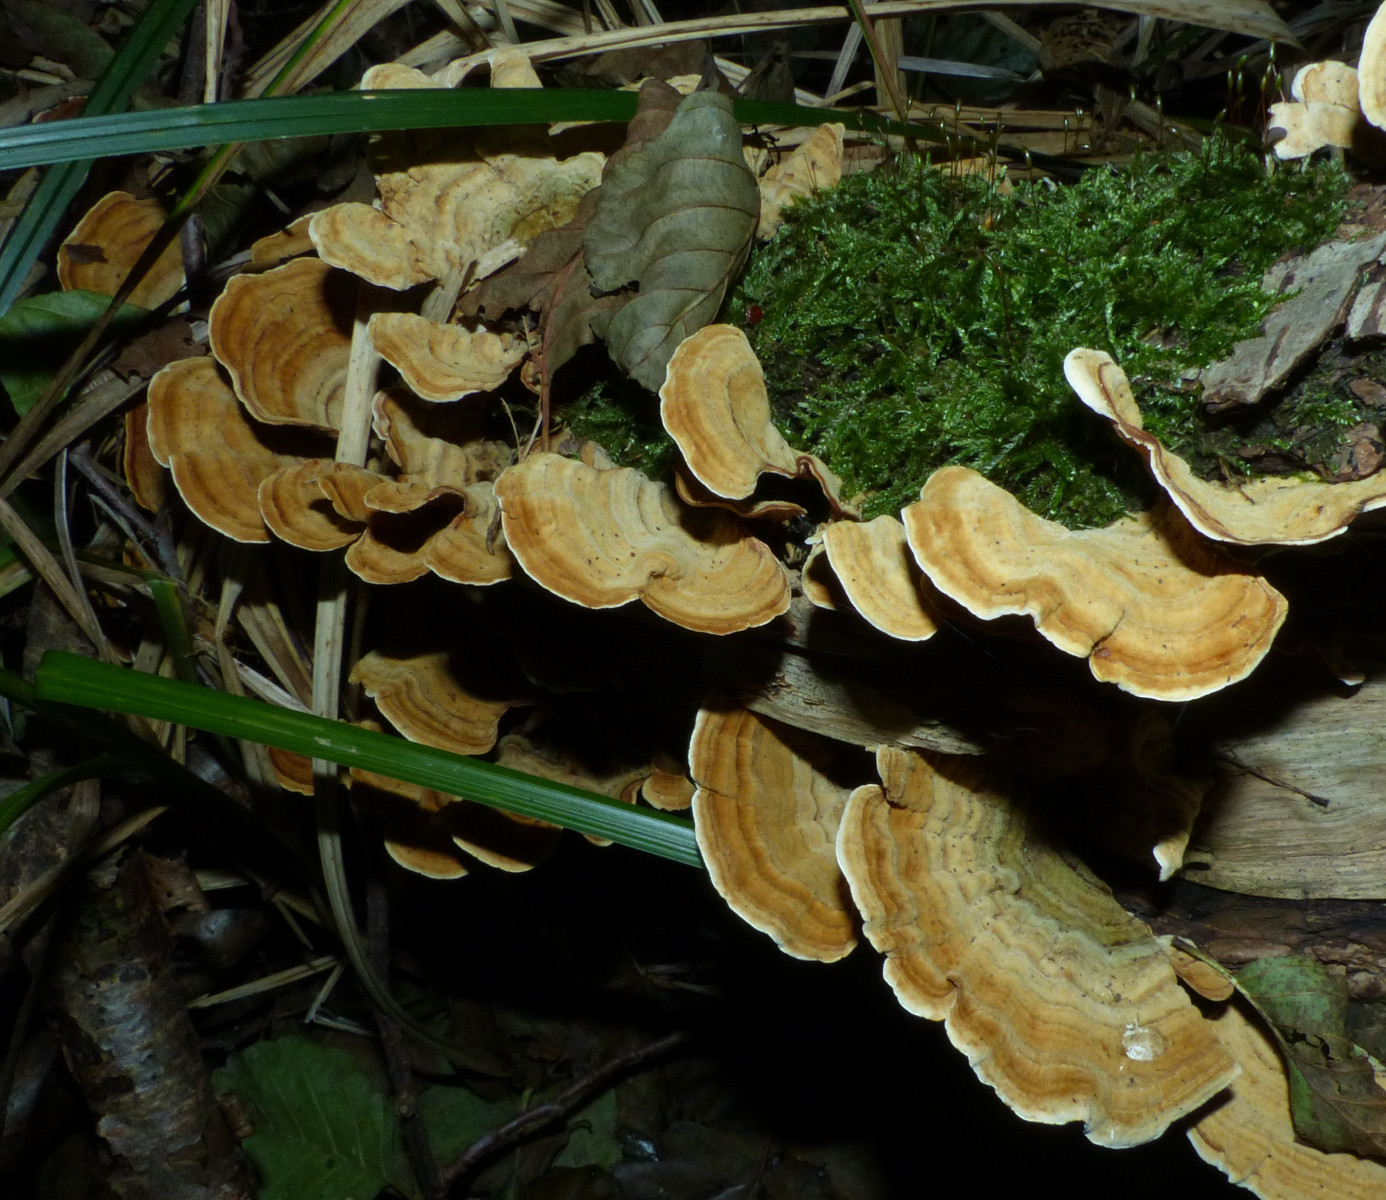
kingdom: Fungi
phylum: Basidiomycota
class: Agaricomycetes
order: Russulales
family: Stereaceae
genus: Stereum
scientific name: Stereum subtomentosum
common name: smuk lædersvamp
